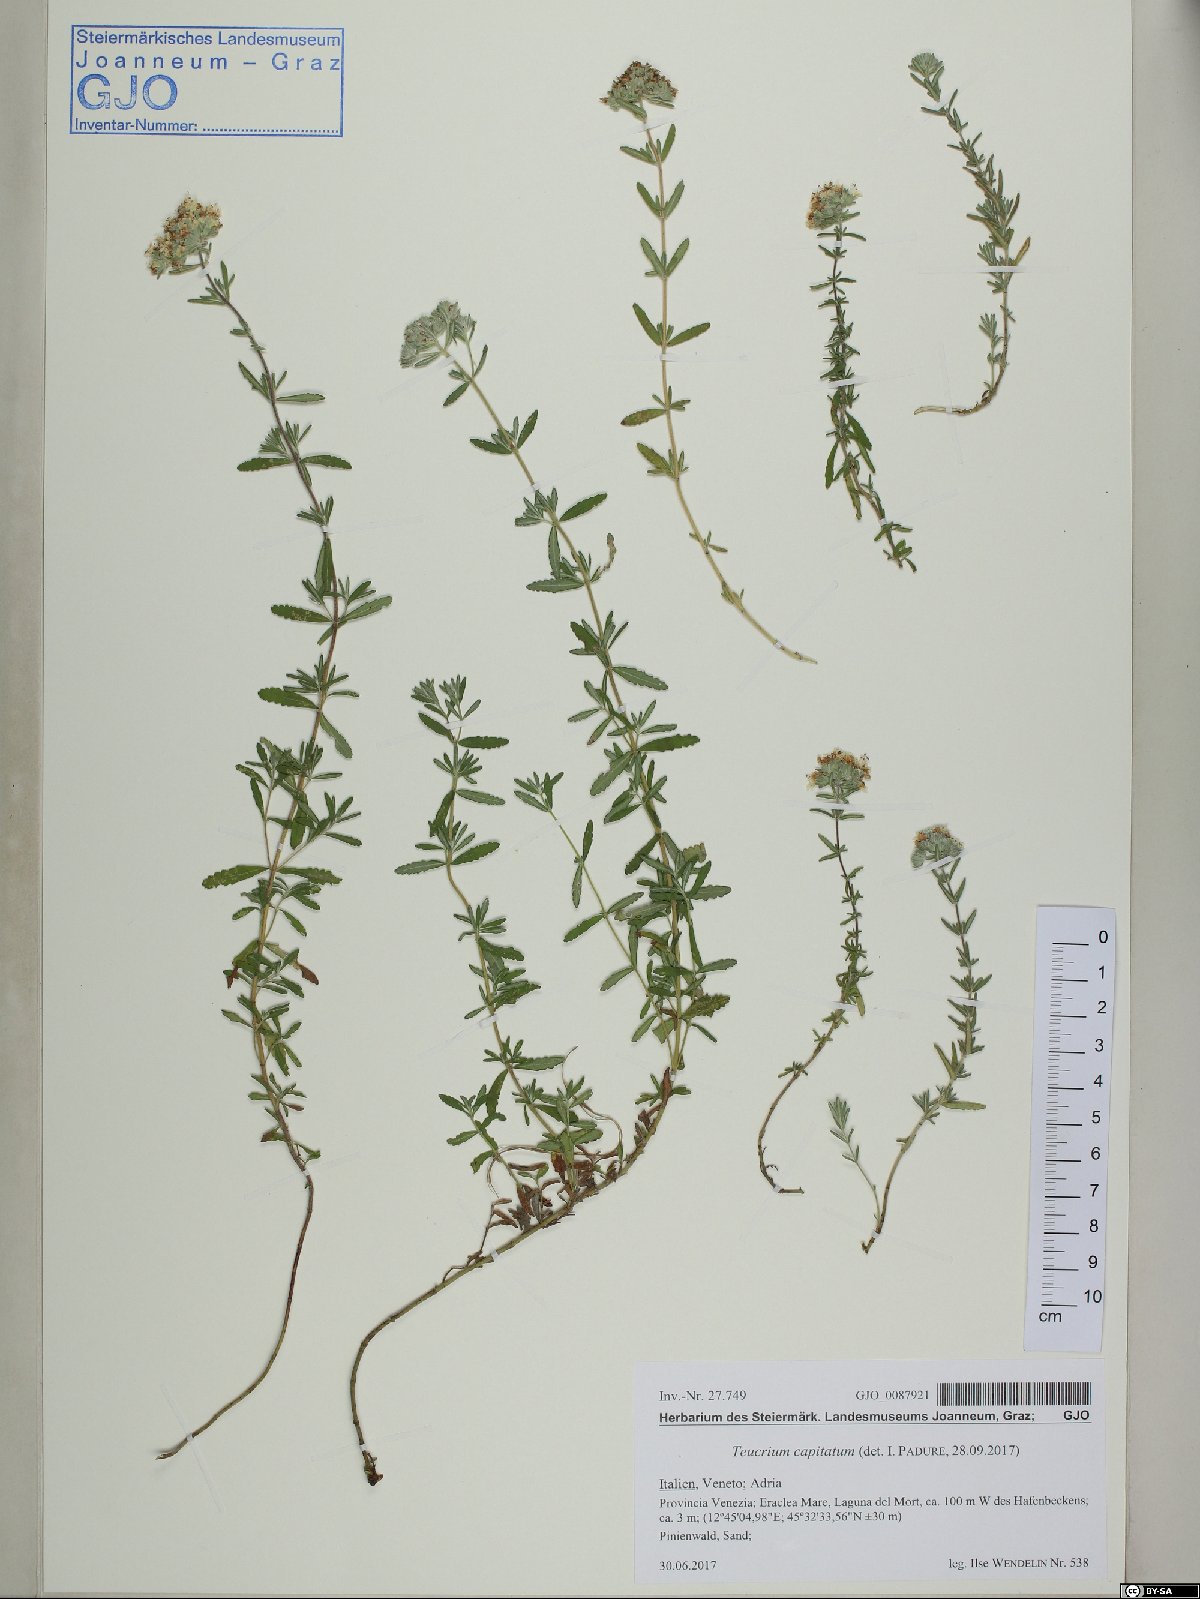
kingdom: Plantae
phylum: Tracheophyta
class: Magnoliopsida
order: Lamiales
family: Lamiaceae
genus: Teucrium
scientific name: Teucrium capitatum
